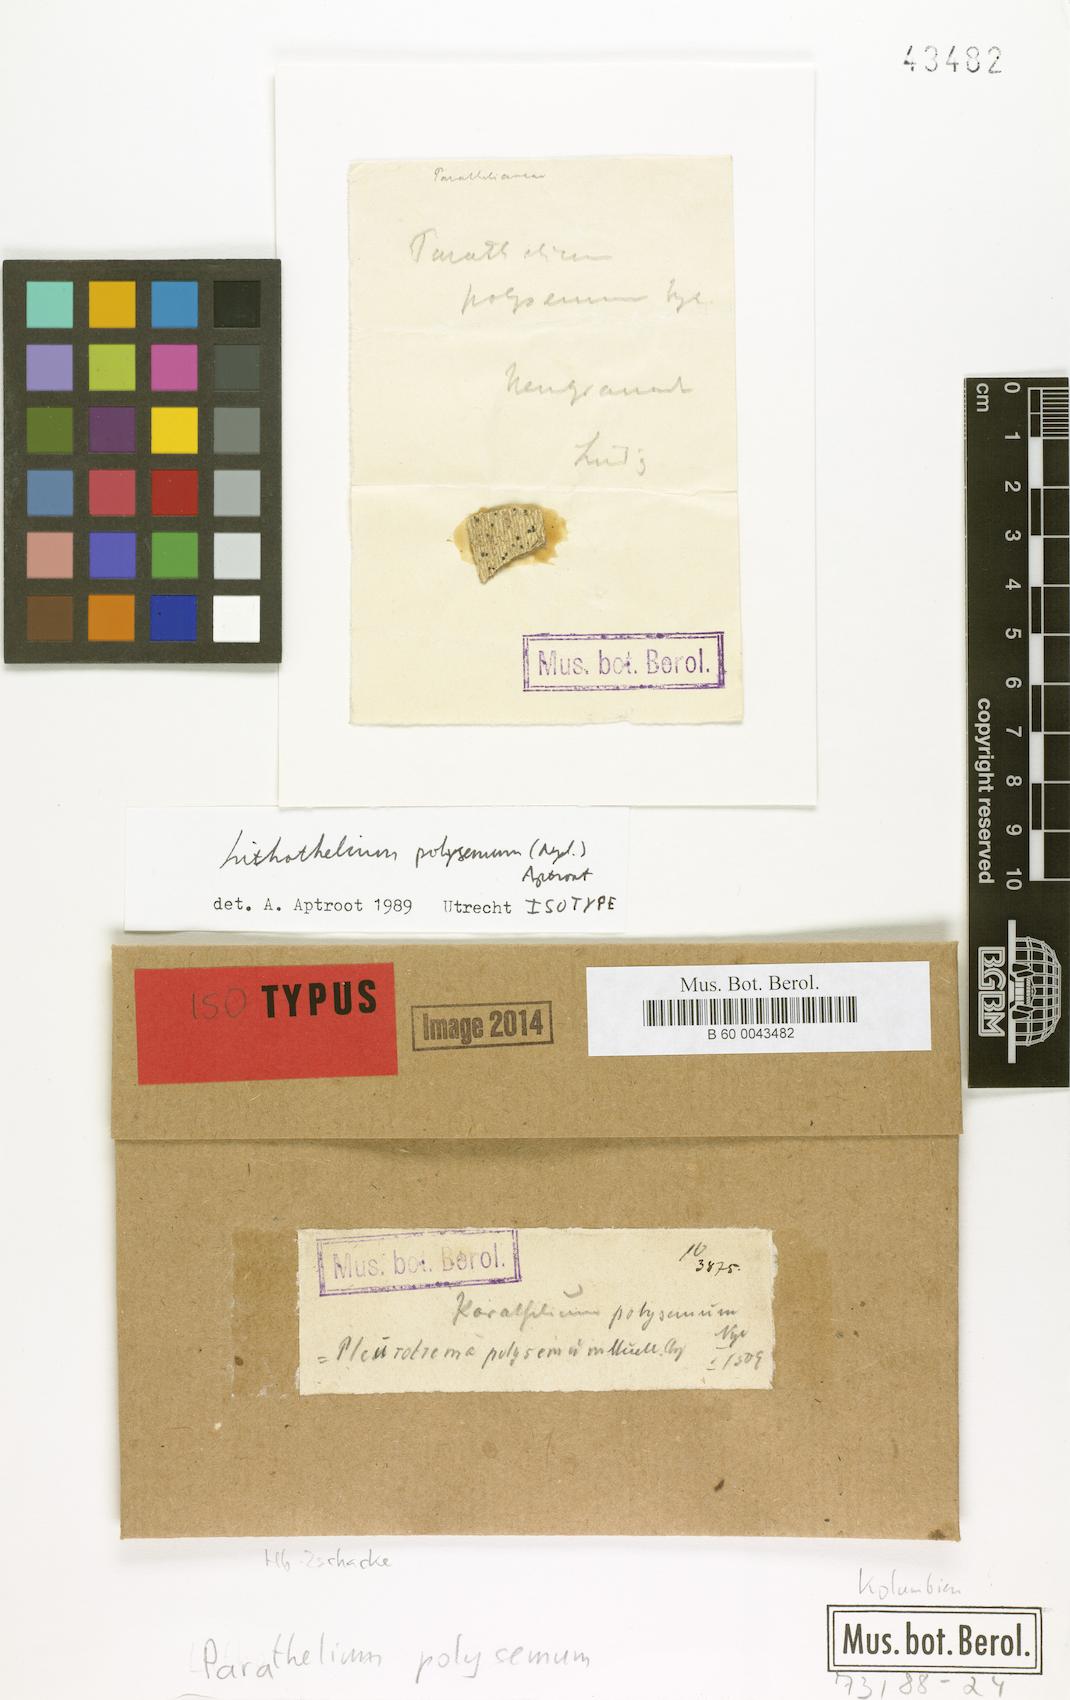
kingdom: Fungi
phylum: Ascomycota
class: Eurotiomycetes
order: Pyrenulales
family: Pyrenulaceae
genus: Lithothelium
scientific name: Lithothelium polysemum
